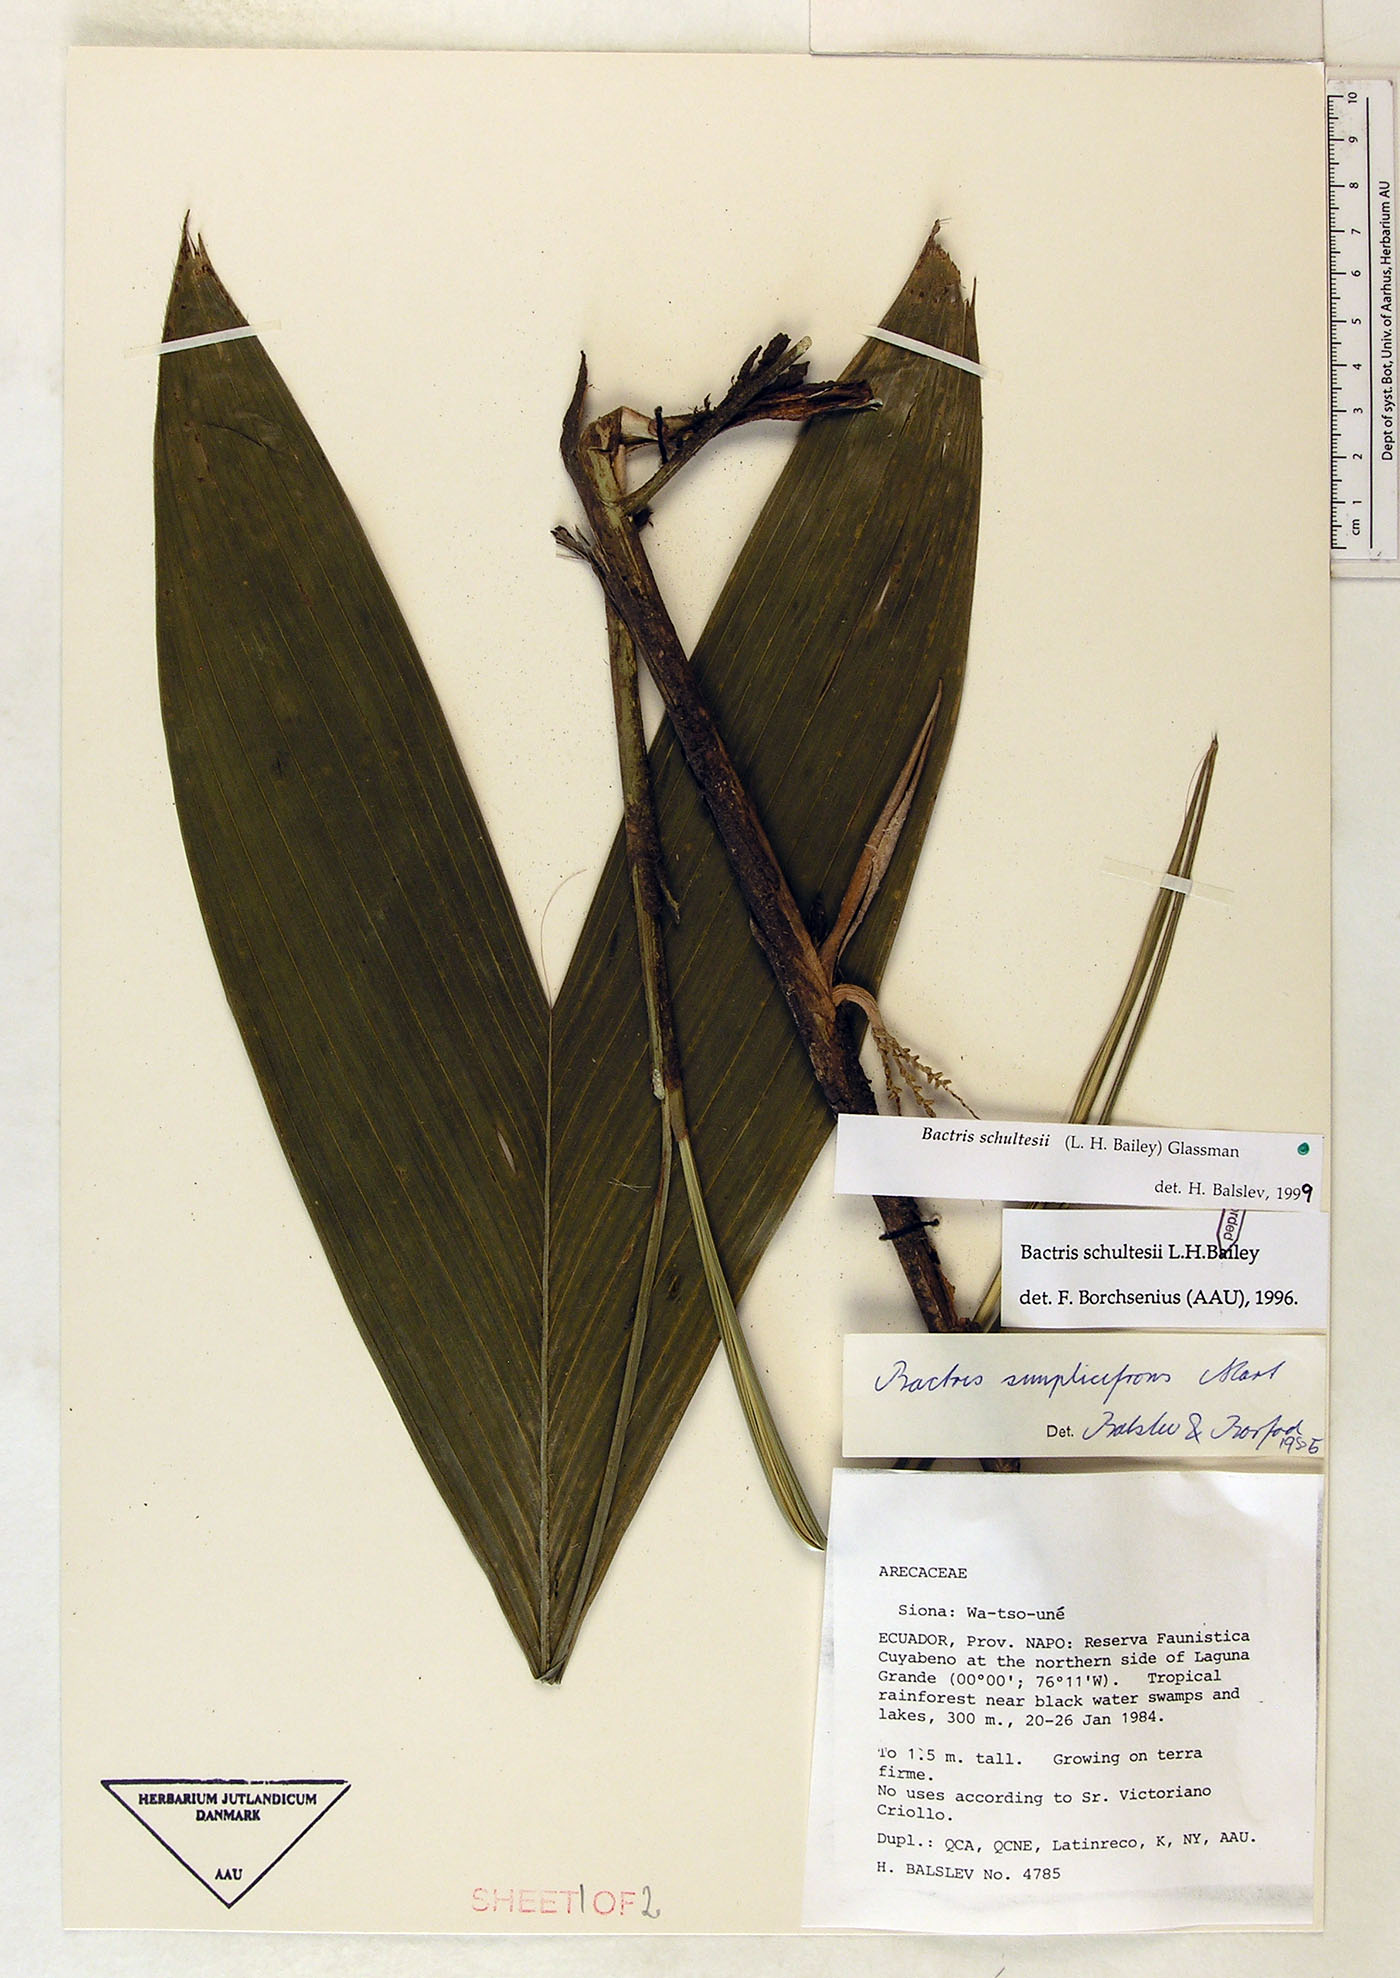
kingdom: Plantae
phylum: Tracheophyta
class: Liliopsida
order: Arecales
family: Arecaceae
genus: Bactris
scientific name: Bactris schultesii
